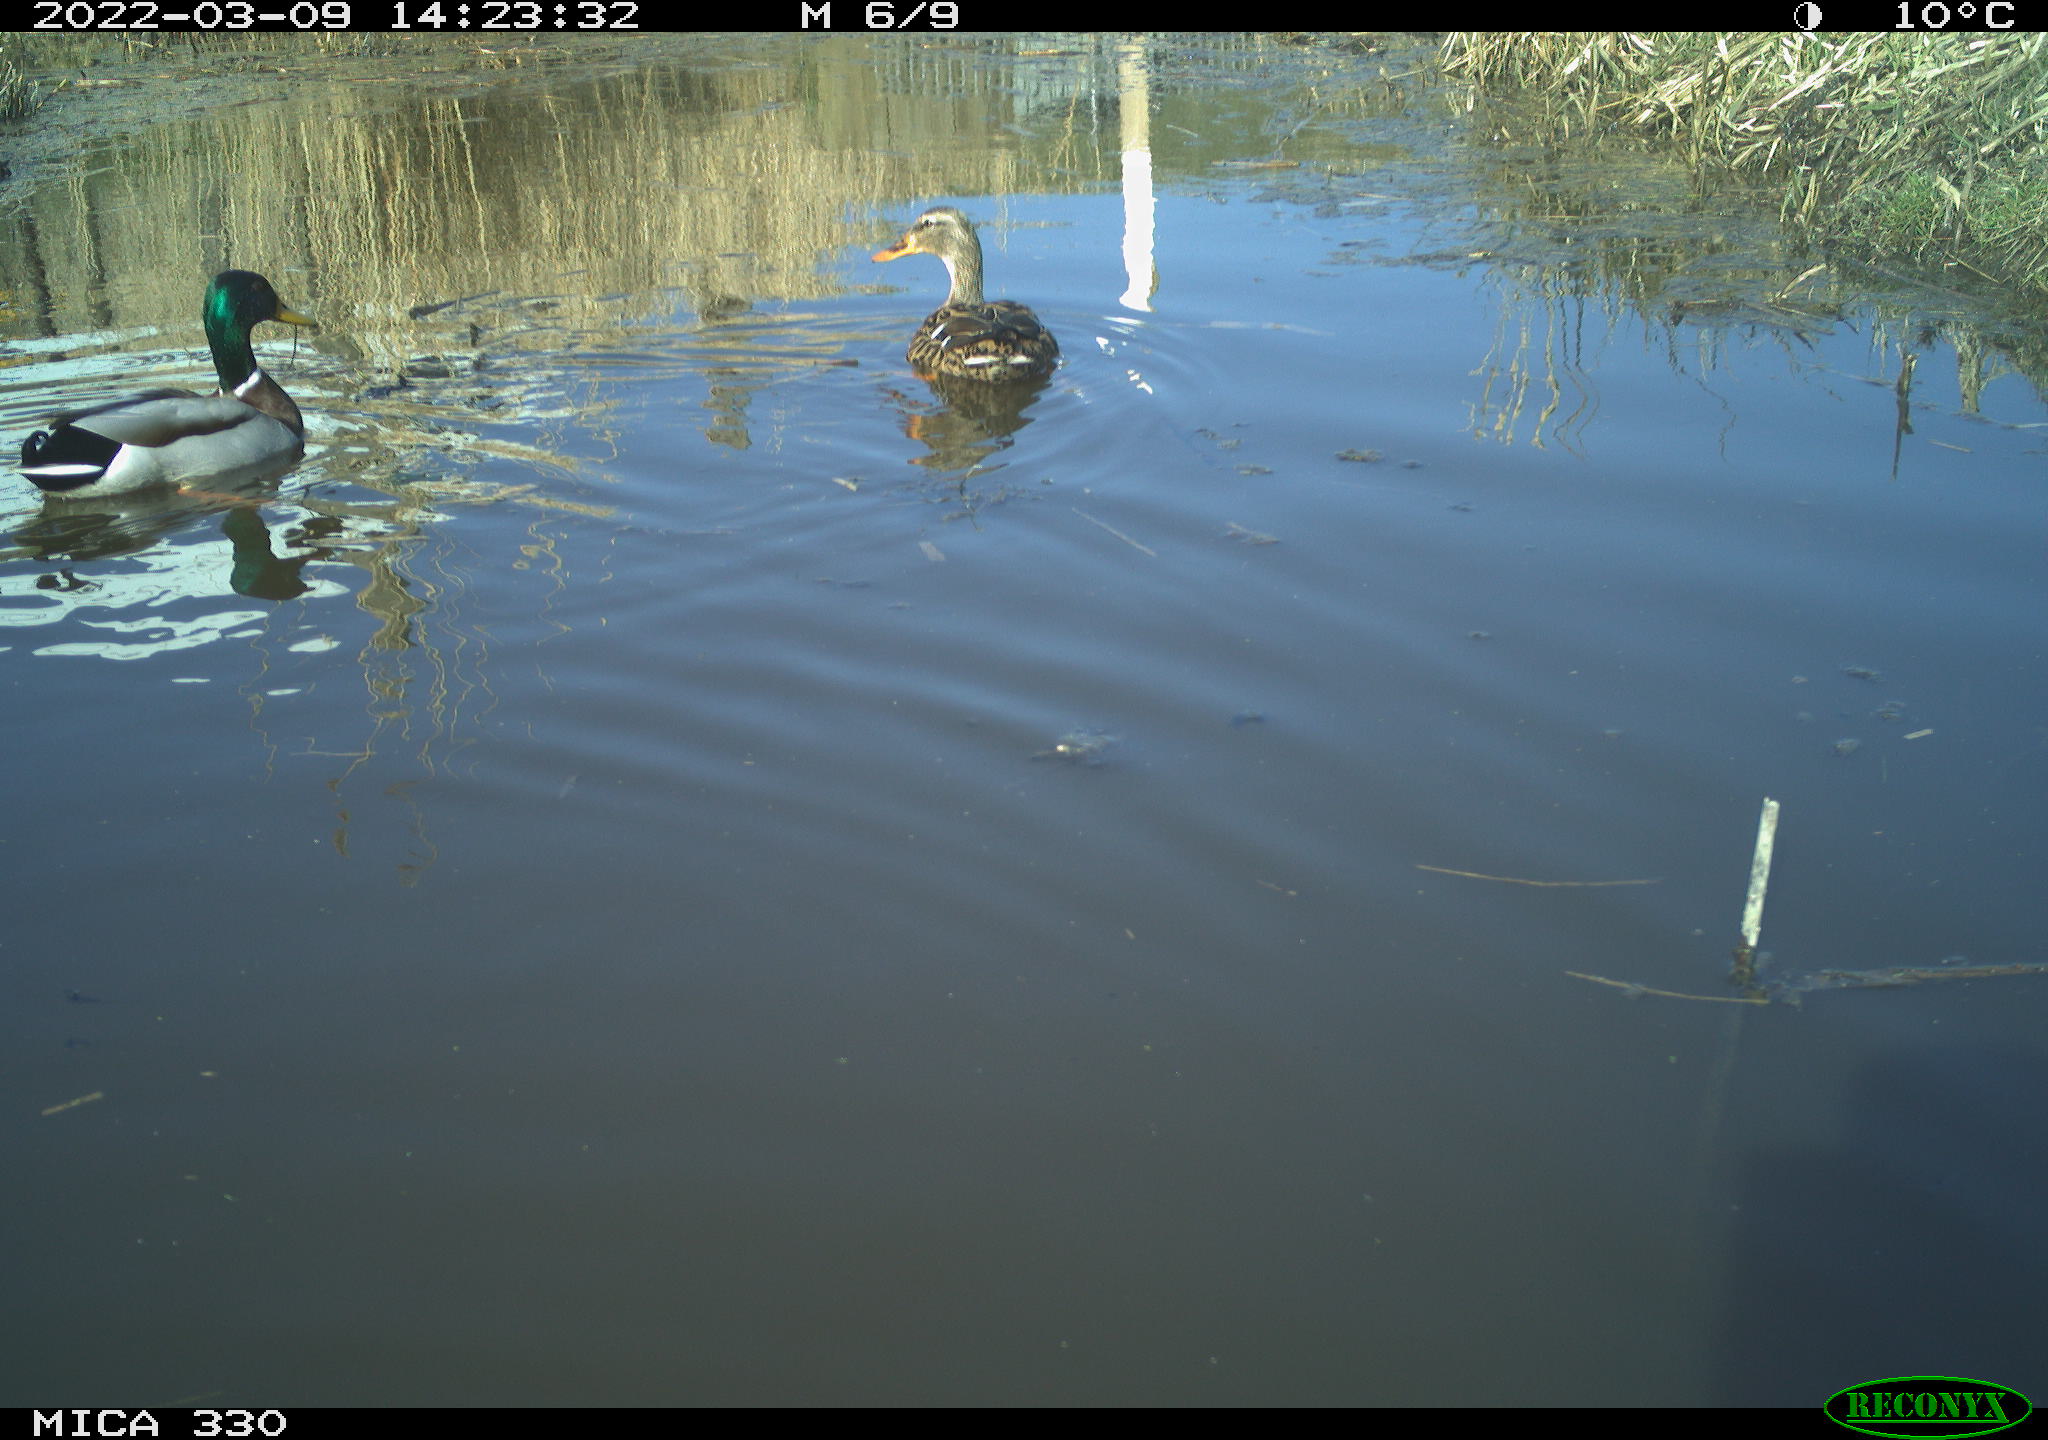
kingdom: Animalia
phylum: Chordata
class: Aves
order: Anseriformes
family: Anatidae
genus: Anas
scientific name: Anas platyrhynchos
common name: Mallard
